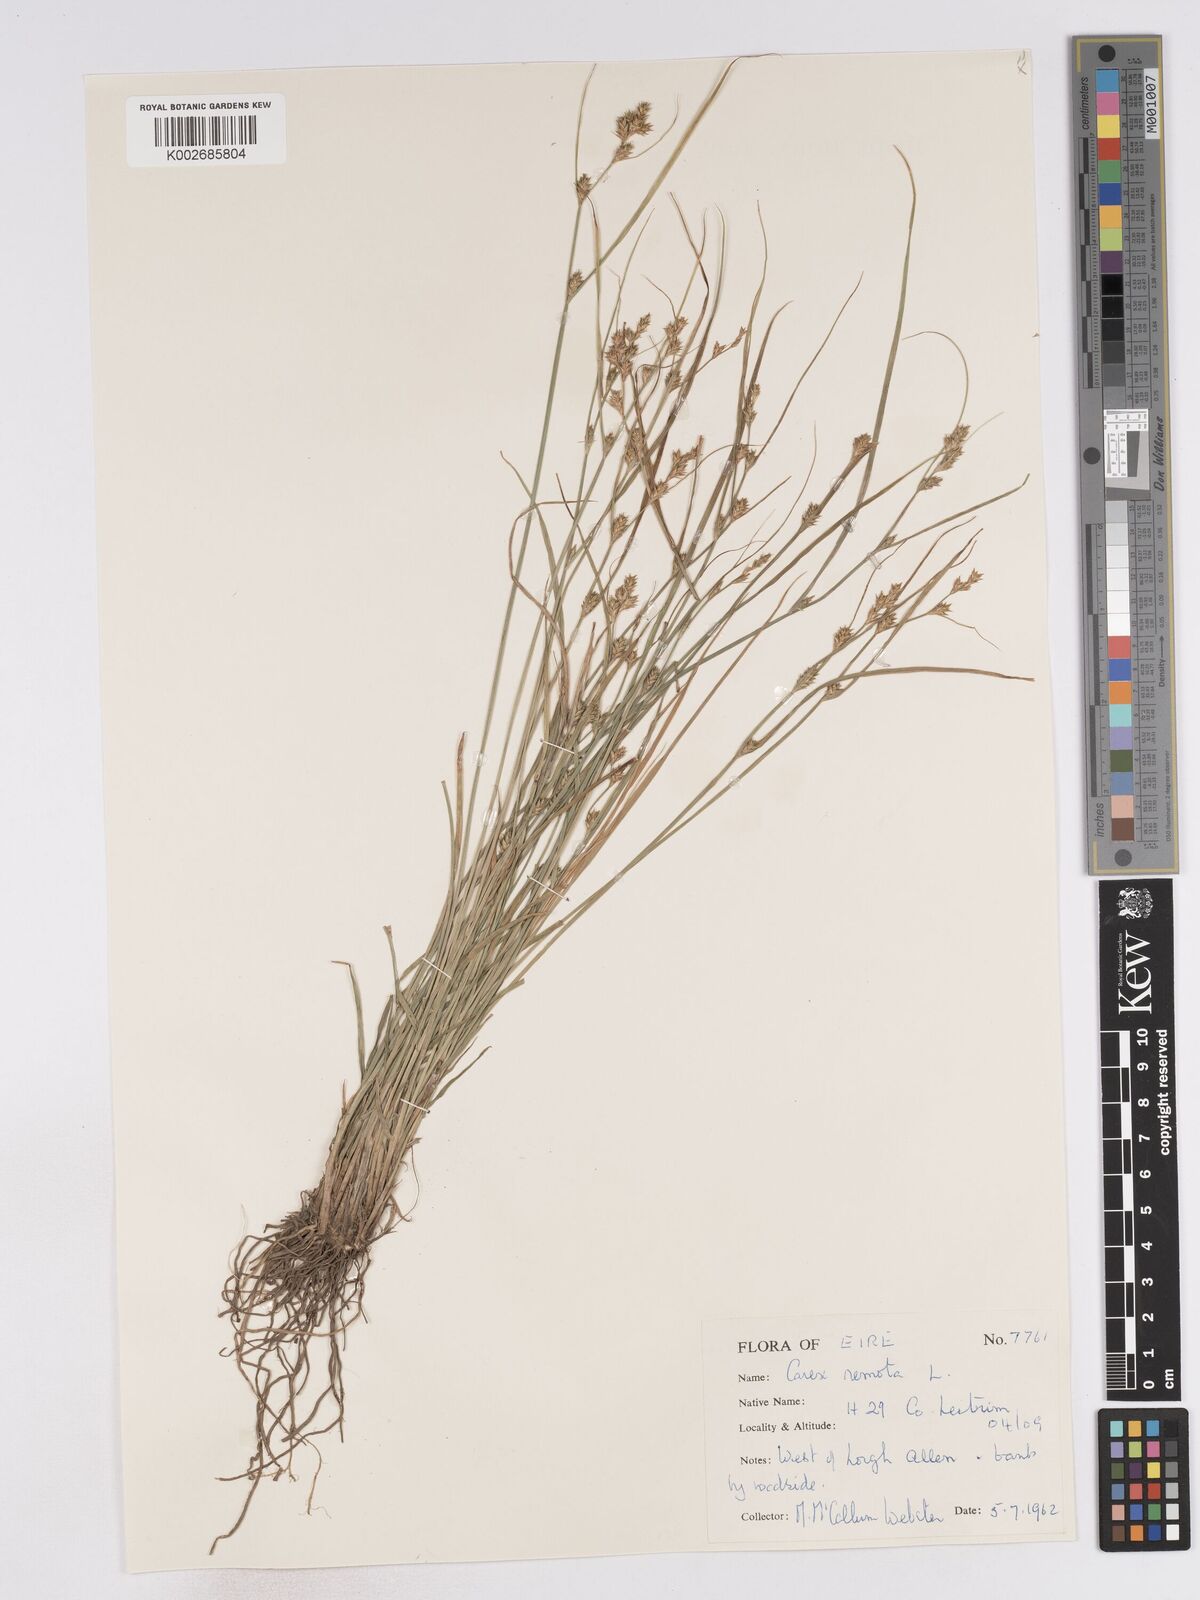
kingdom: Plantae
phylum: Tracheophyta
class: Liliopsida
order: Poales
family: Cyperaceae
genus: Carex
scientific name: Carex remota
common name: Remote sedge
